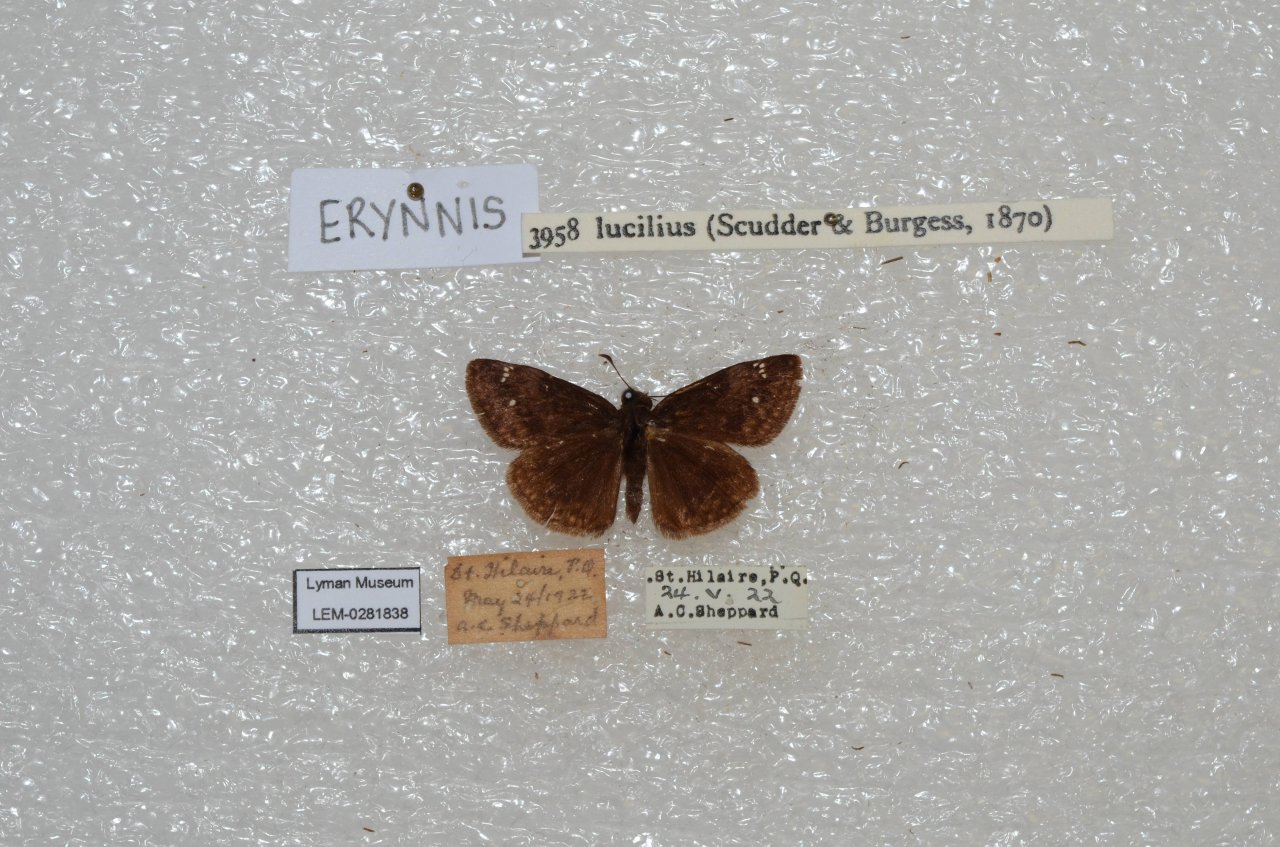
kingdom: Animalia
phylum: Arthropoda
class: Insecta
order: Lepidoptera
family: Hesperiidae
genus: Gesta
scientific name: Gesta
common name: Columbine Duskywing
